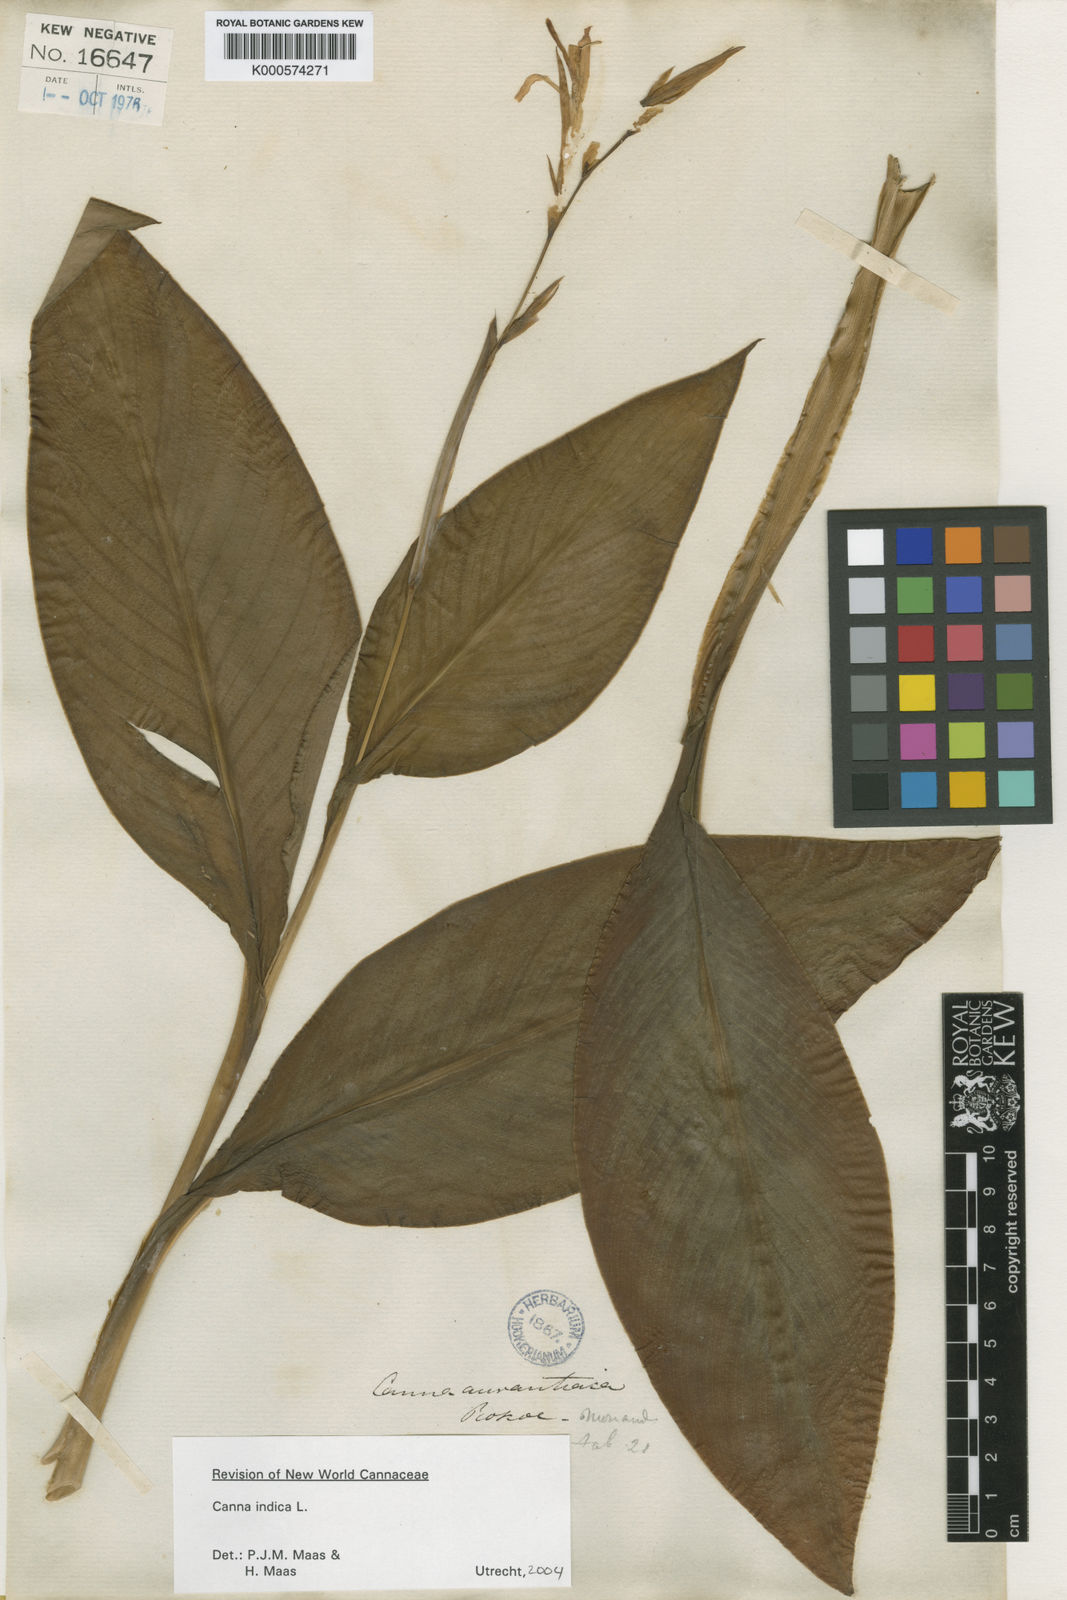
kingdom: Plantae
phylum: Tracheophyta
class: Liliopsida
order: Zingiberales
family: Cannaceae
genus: Canna
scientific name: Canna indica
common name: Indian shot
